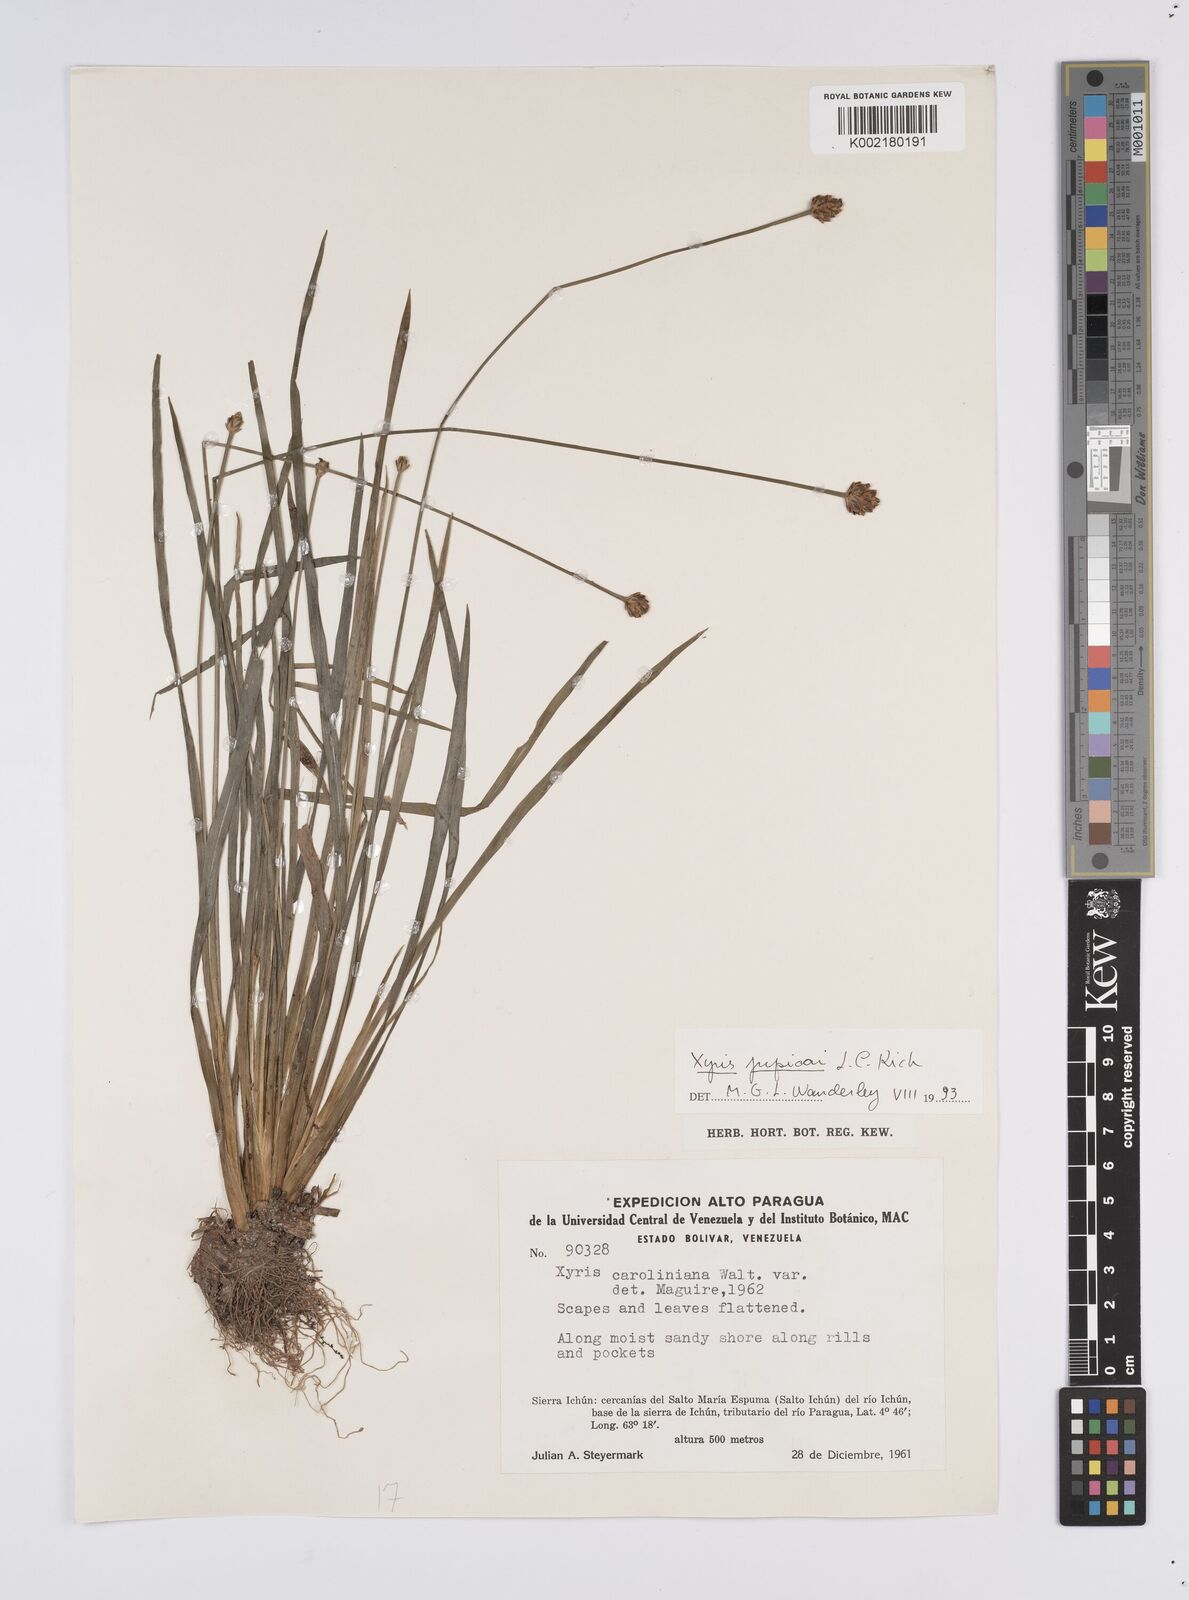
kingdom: Plantae
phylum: Tracheophyta
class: Liliopsida
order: Poales
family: Xyridaceae
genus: Xyris
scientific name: Xyris jupicai
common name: Richard's yelloweyed grass
